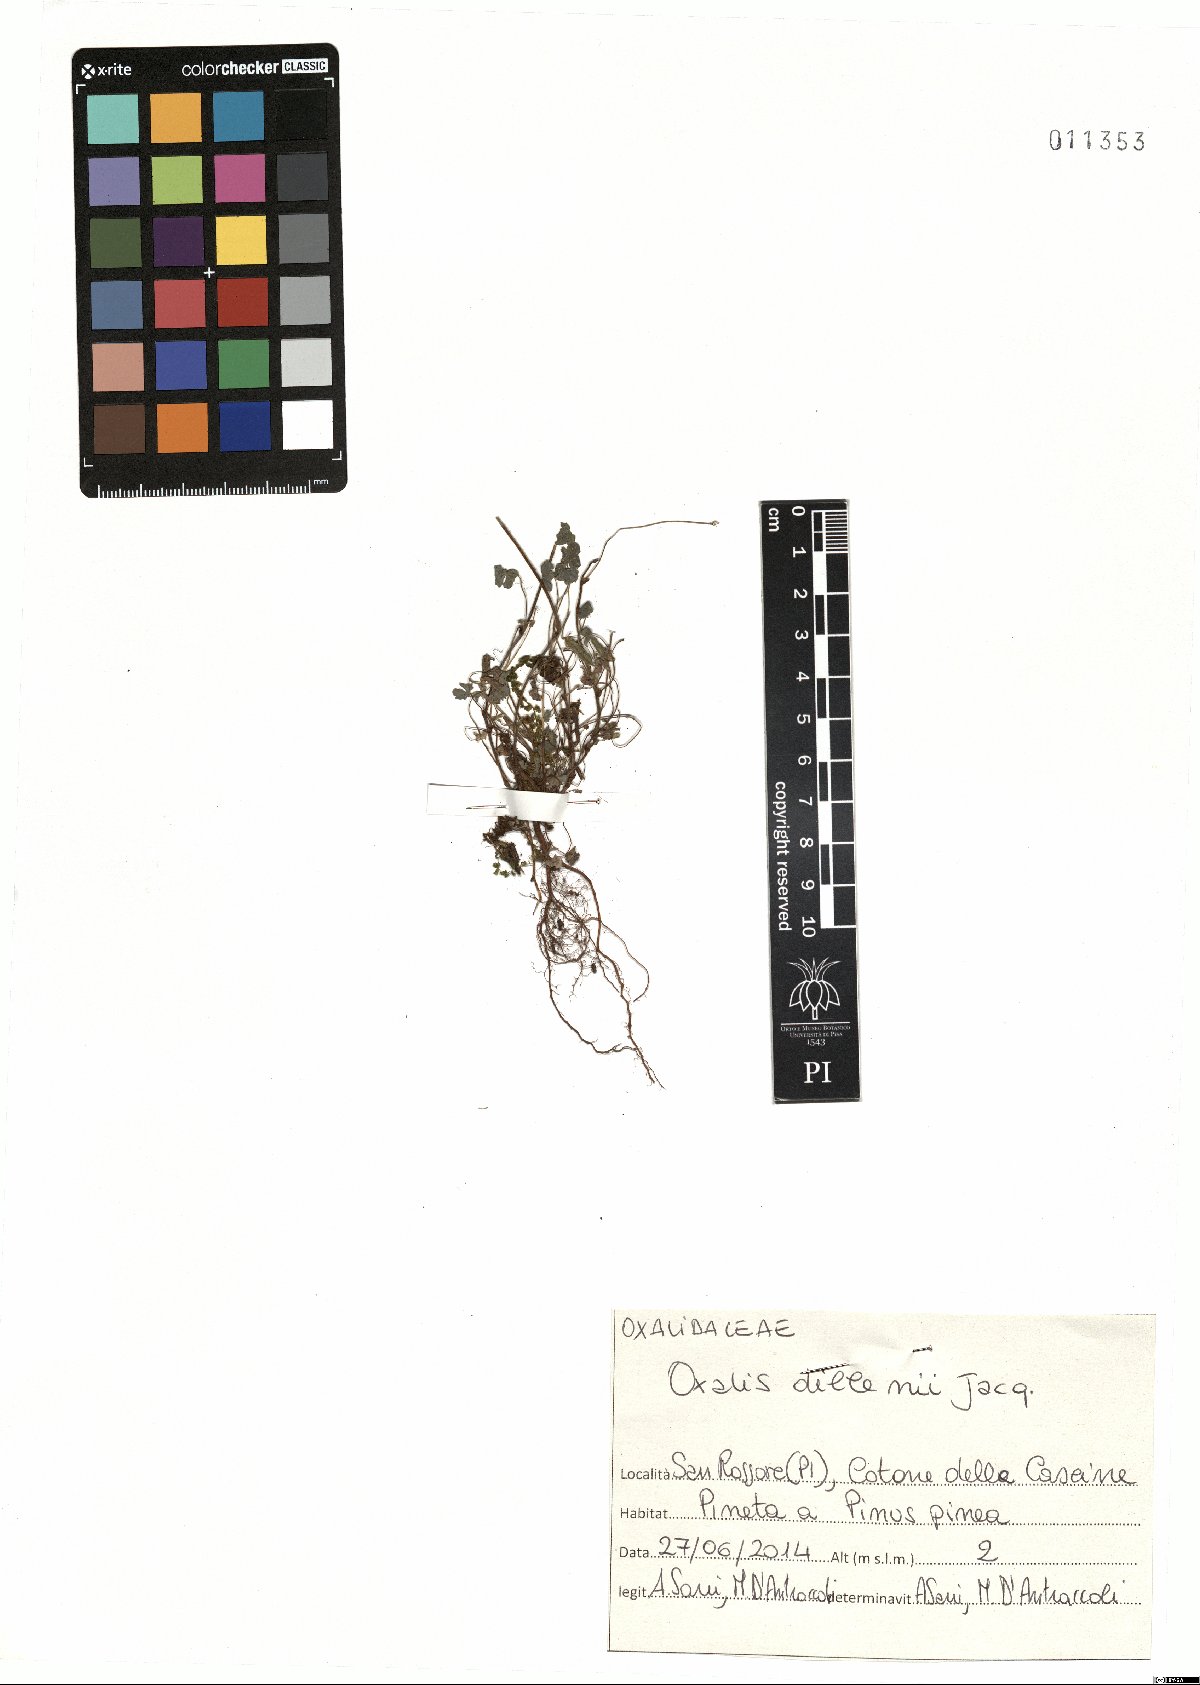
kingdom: Plantae
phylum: Tracheophyta
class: Magnoliopsida
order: Oxalidales
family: Oxalidaceae
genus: Oxalis
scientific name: Oxalis dillenii
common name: Sussex yellow-sorrel
